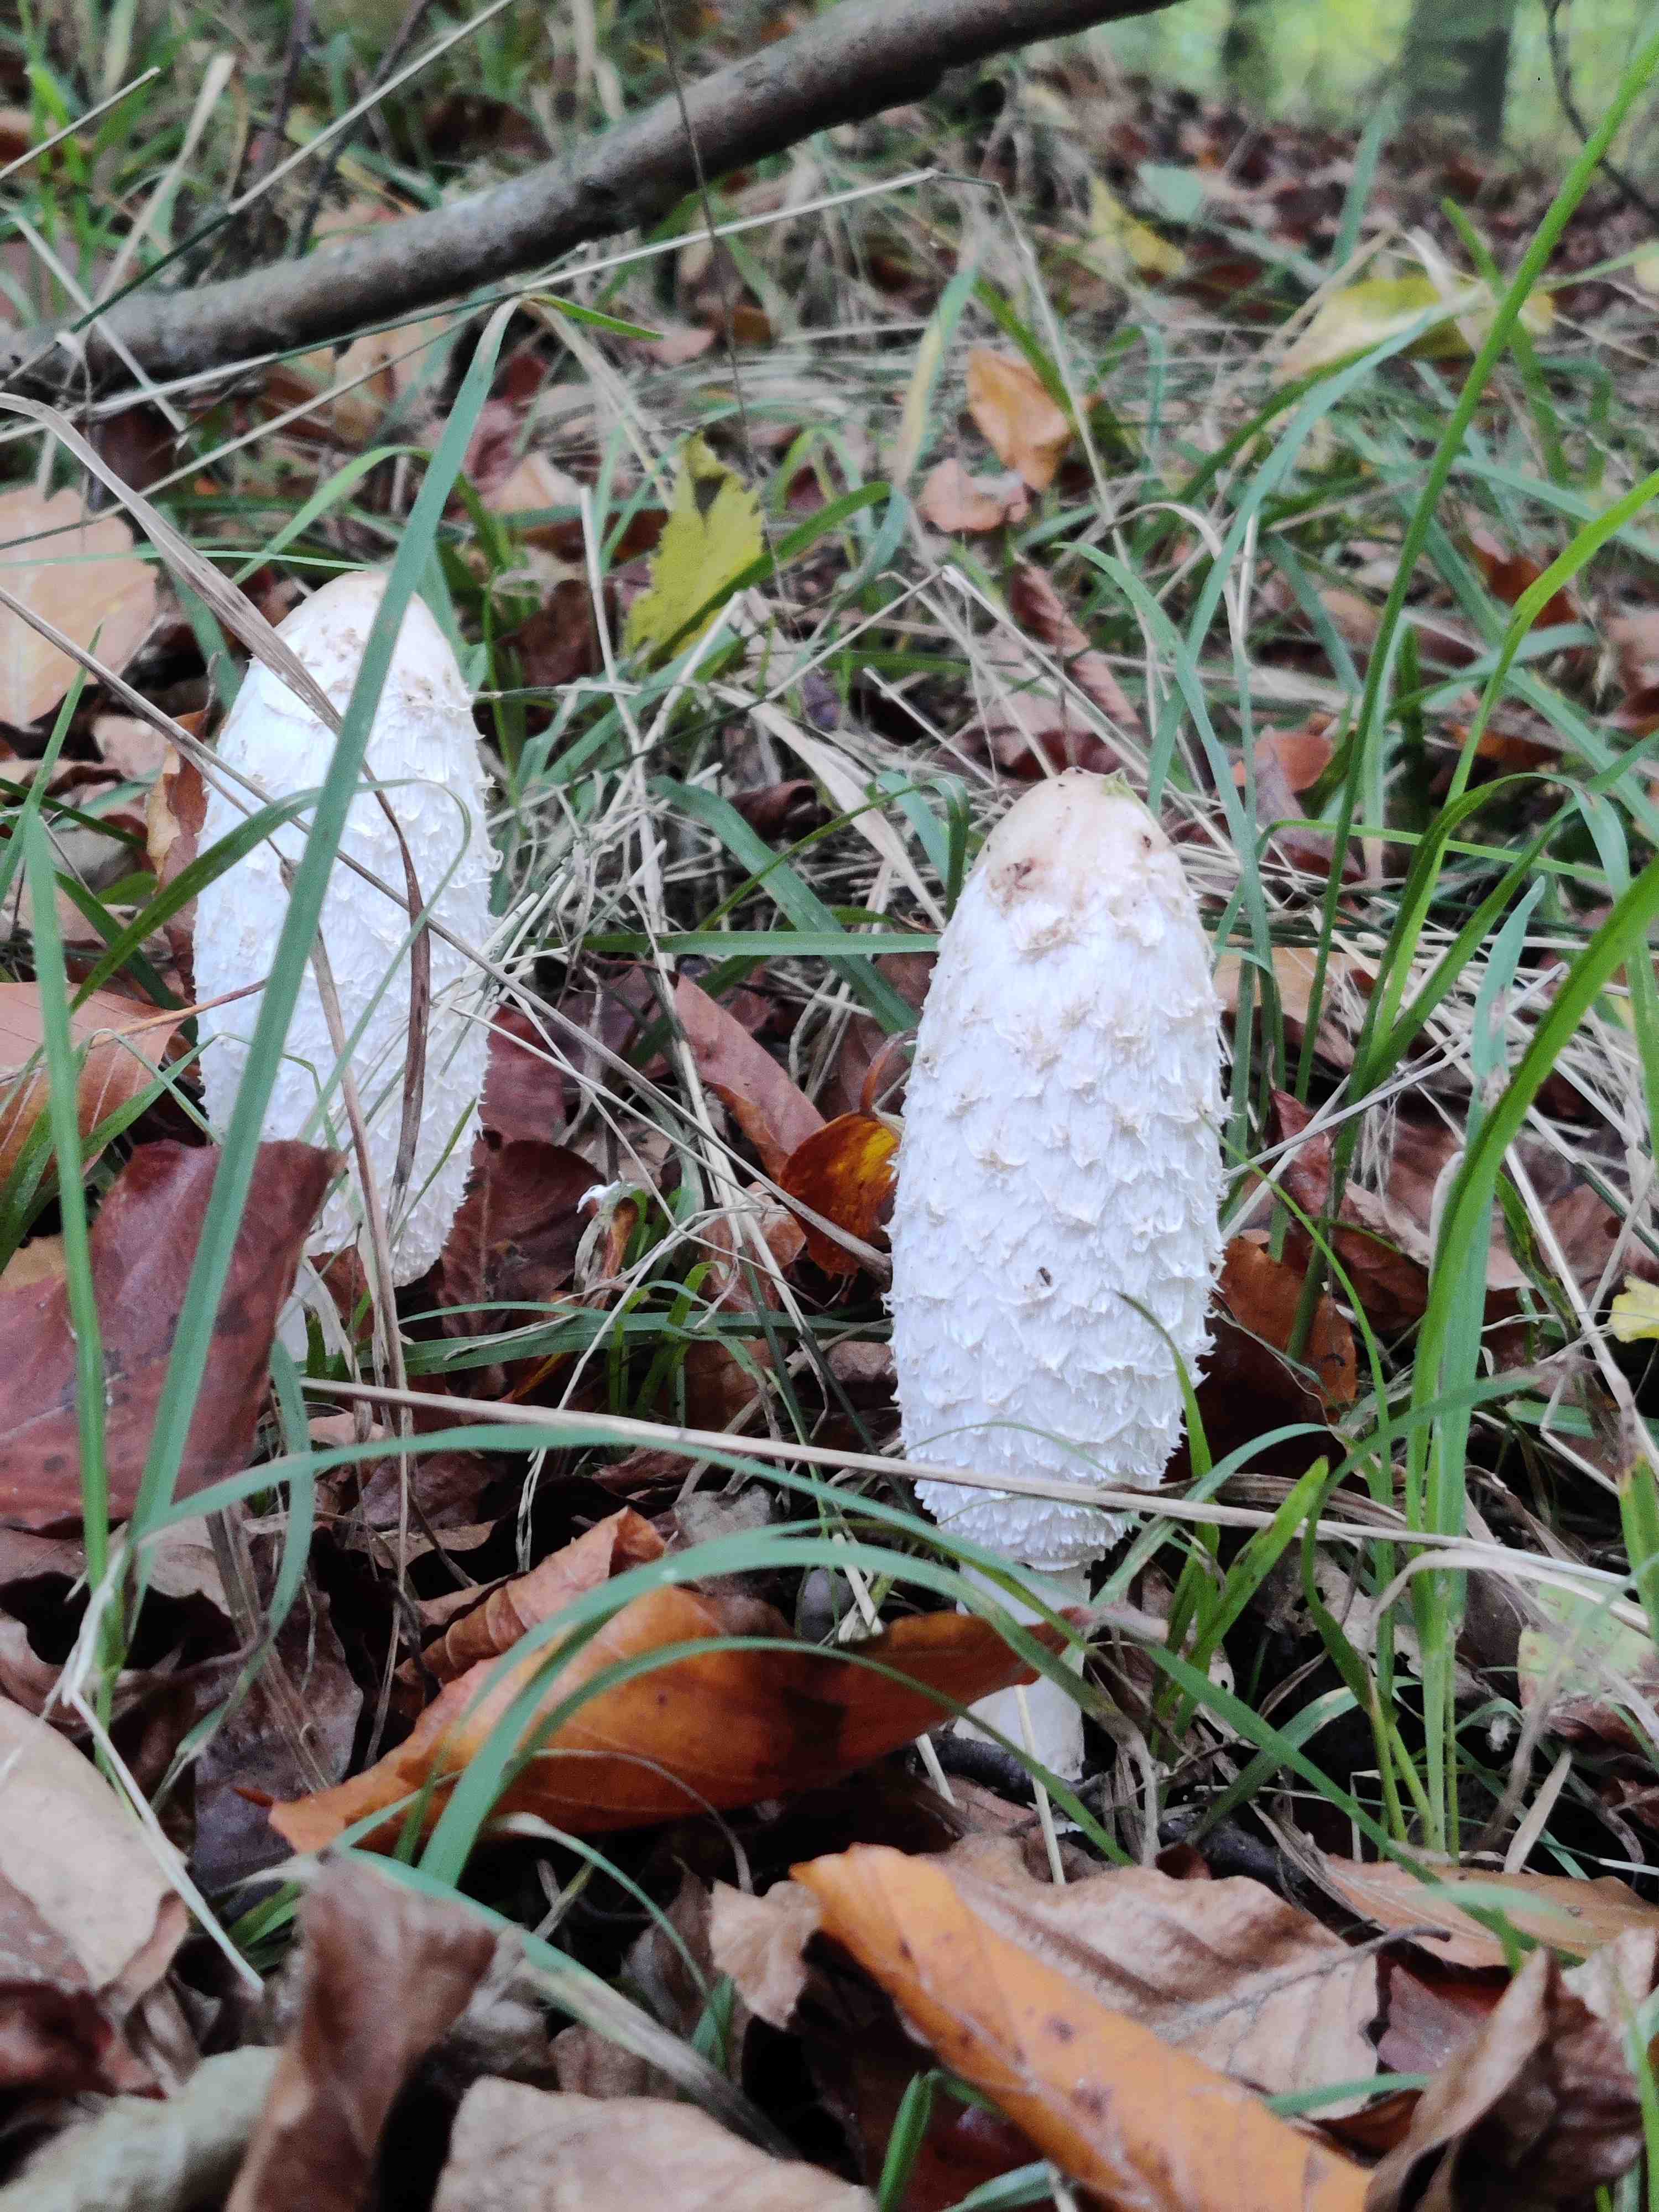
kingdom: Fungi
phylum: Basidiomycota
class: Agaricomycetes
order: Agaricales
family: Agaricaceae
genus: Coprinus
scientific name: Coprinus comatus
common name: stor parykhat
